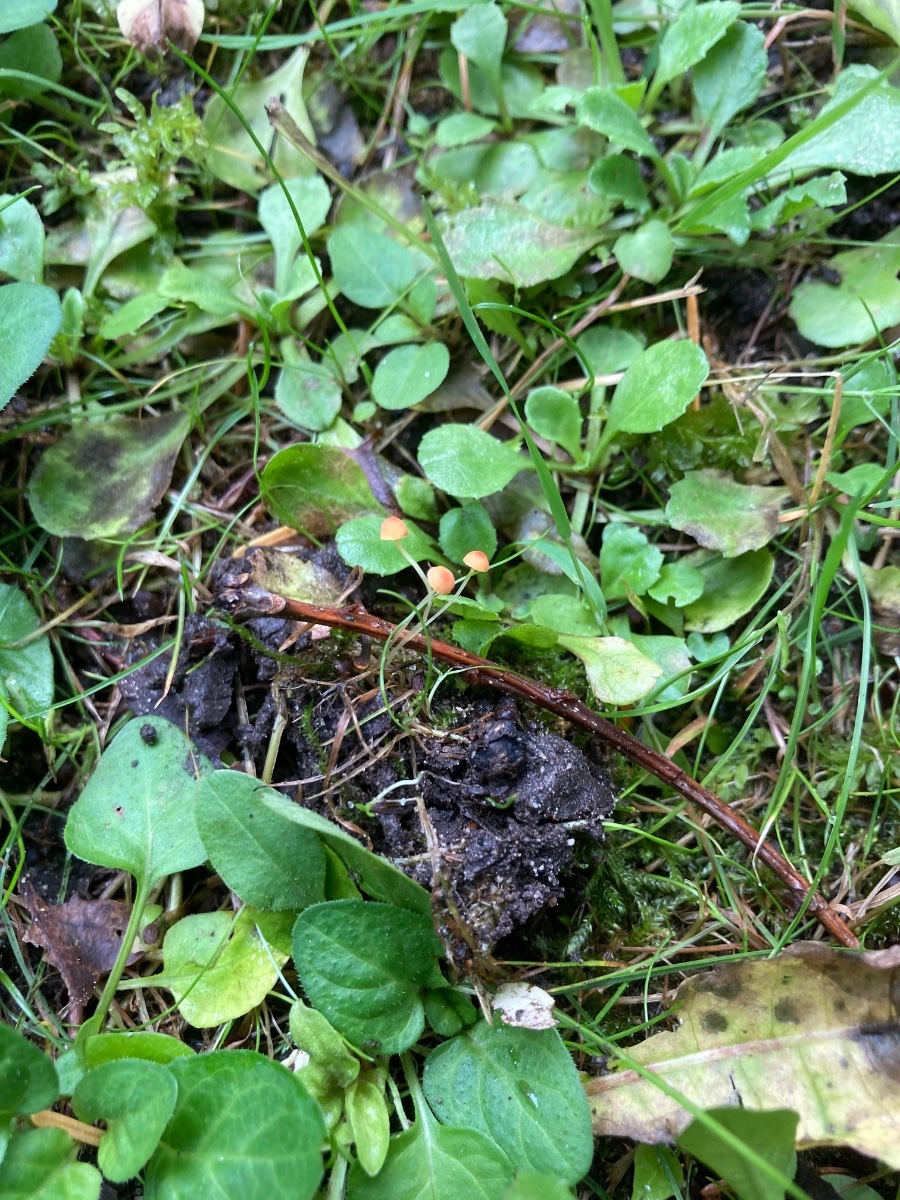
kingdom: Fungi
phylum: Basidiomycota
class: Agaricomycetes
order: Agaricales
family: Mycenaceae
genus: Mycena
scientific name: Mycena acicula
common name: orange huesvamp
